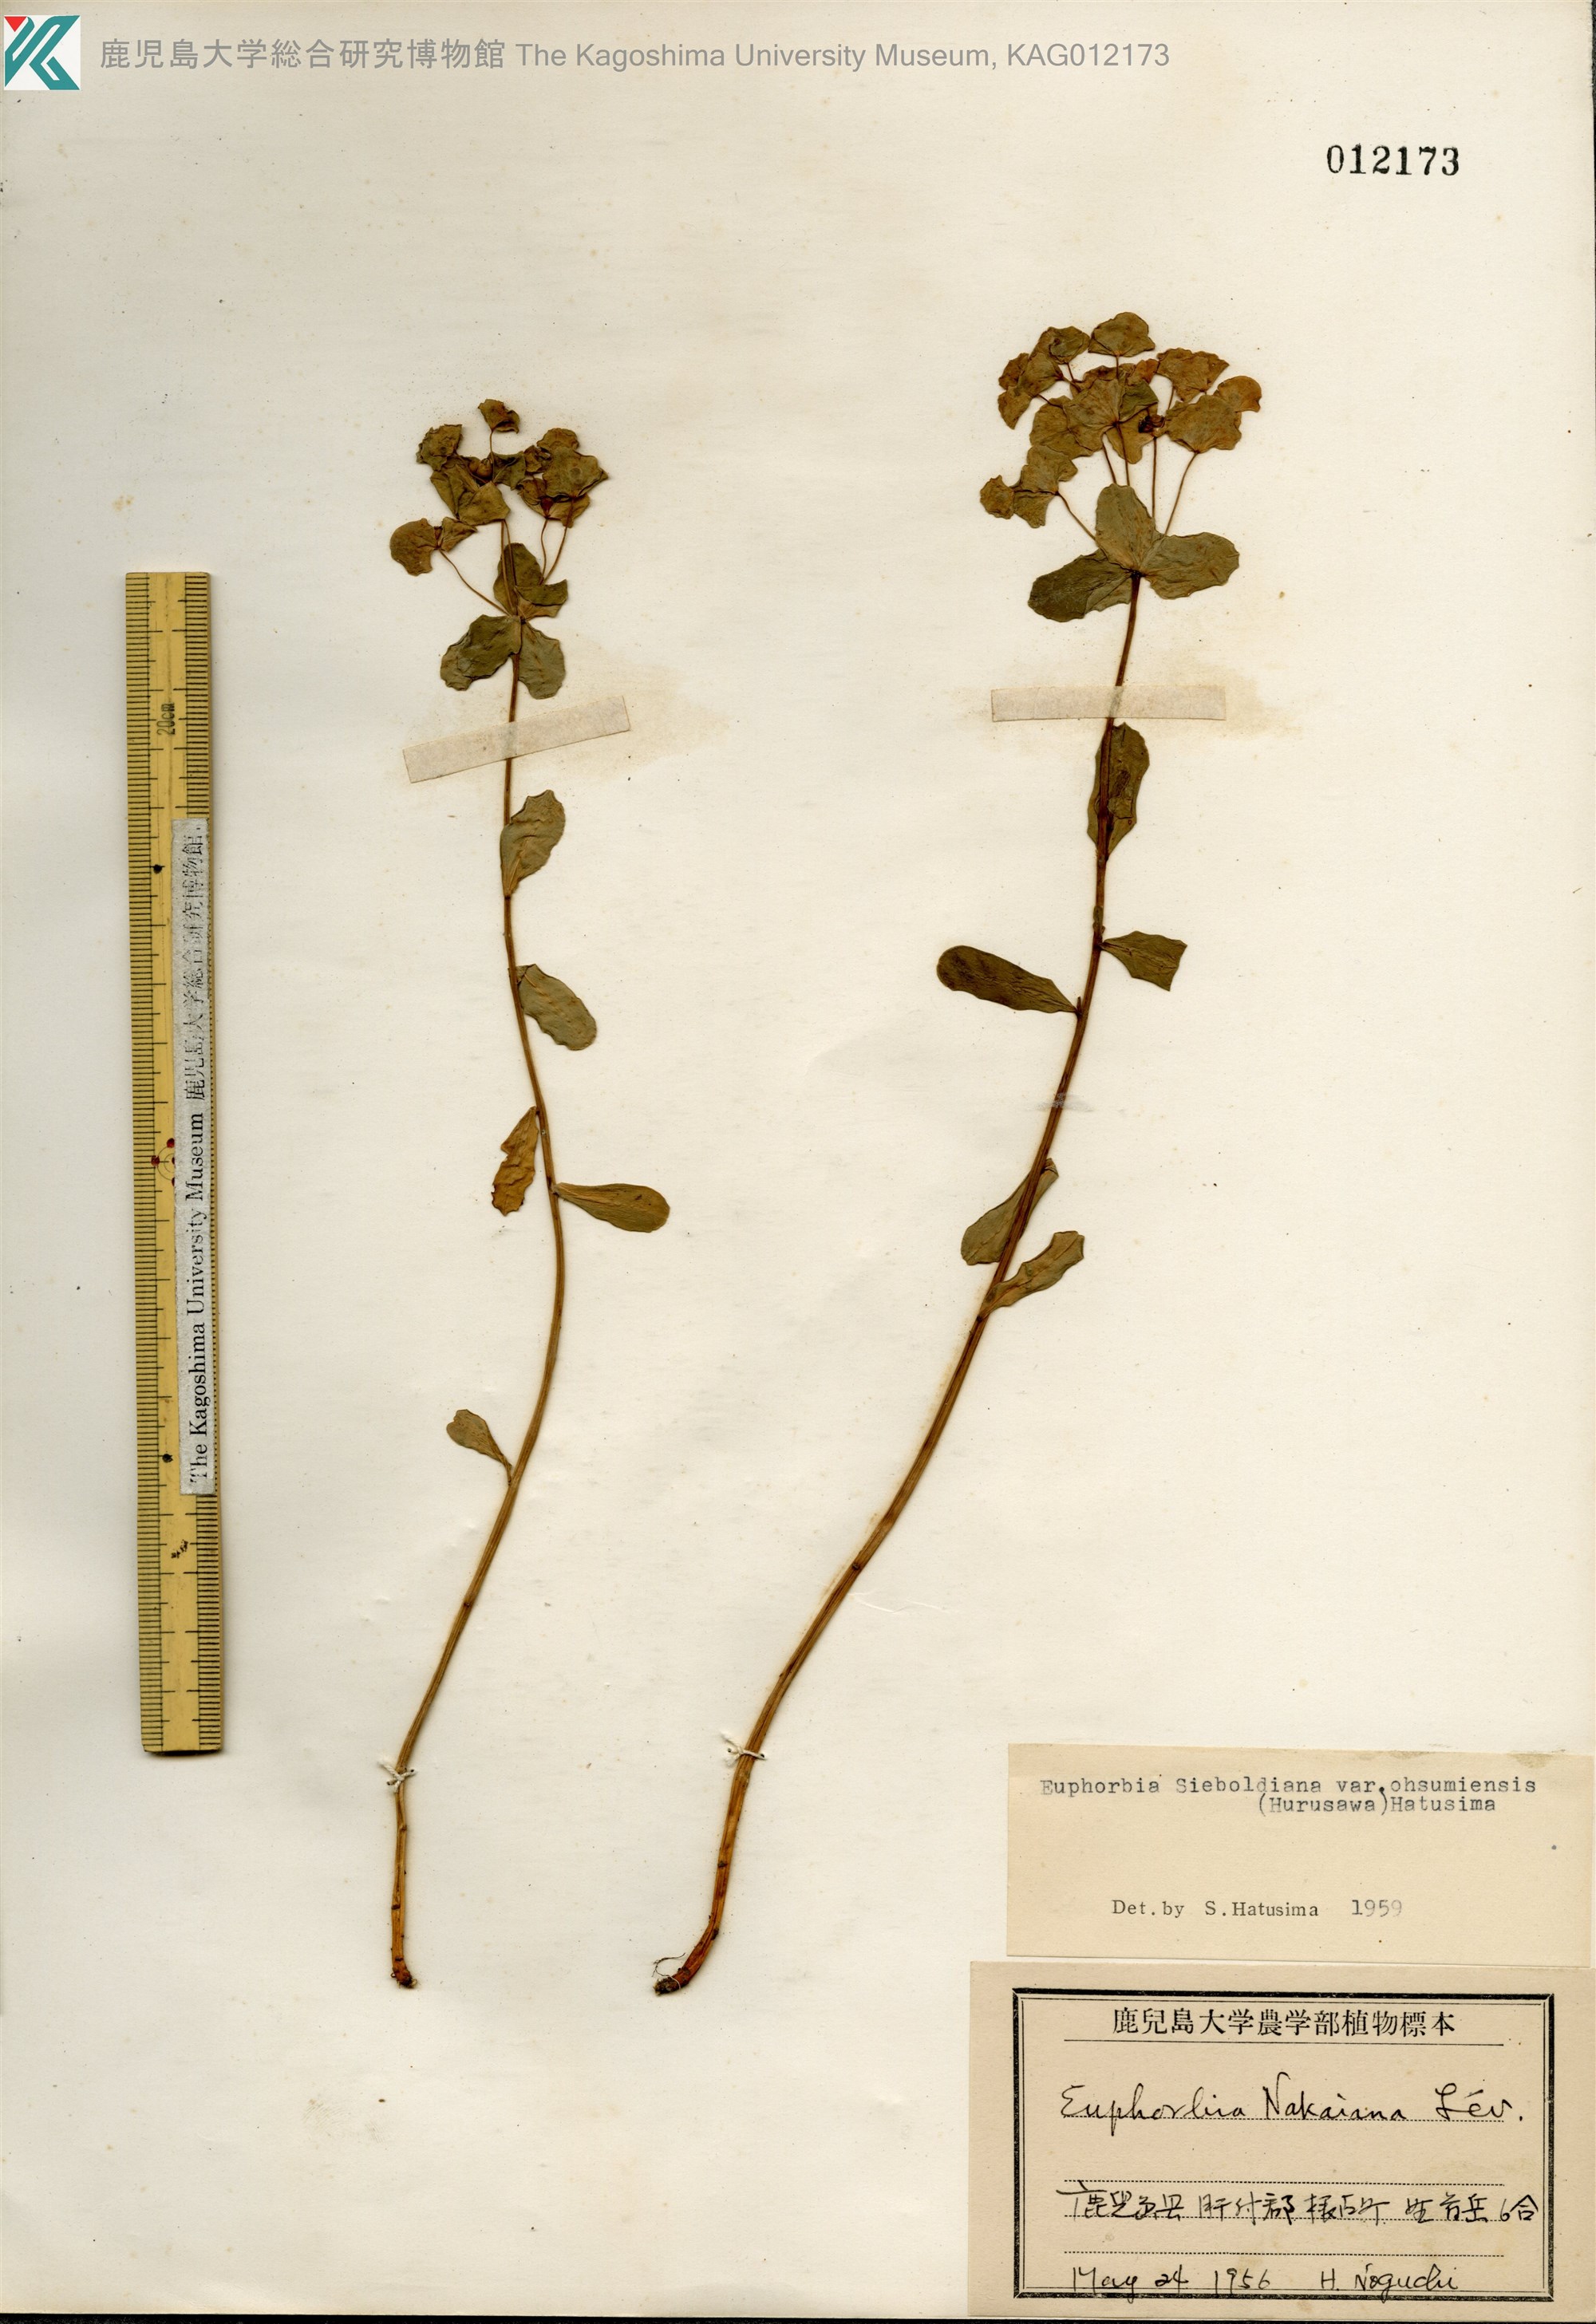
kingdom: Plantae
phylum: Tracheophyta
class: Magnoliopsida
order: Malpighiales
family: Euphorbiaceae
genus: Euphorbia
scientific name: Euphorbia sieboldiana
